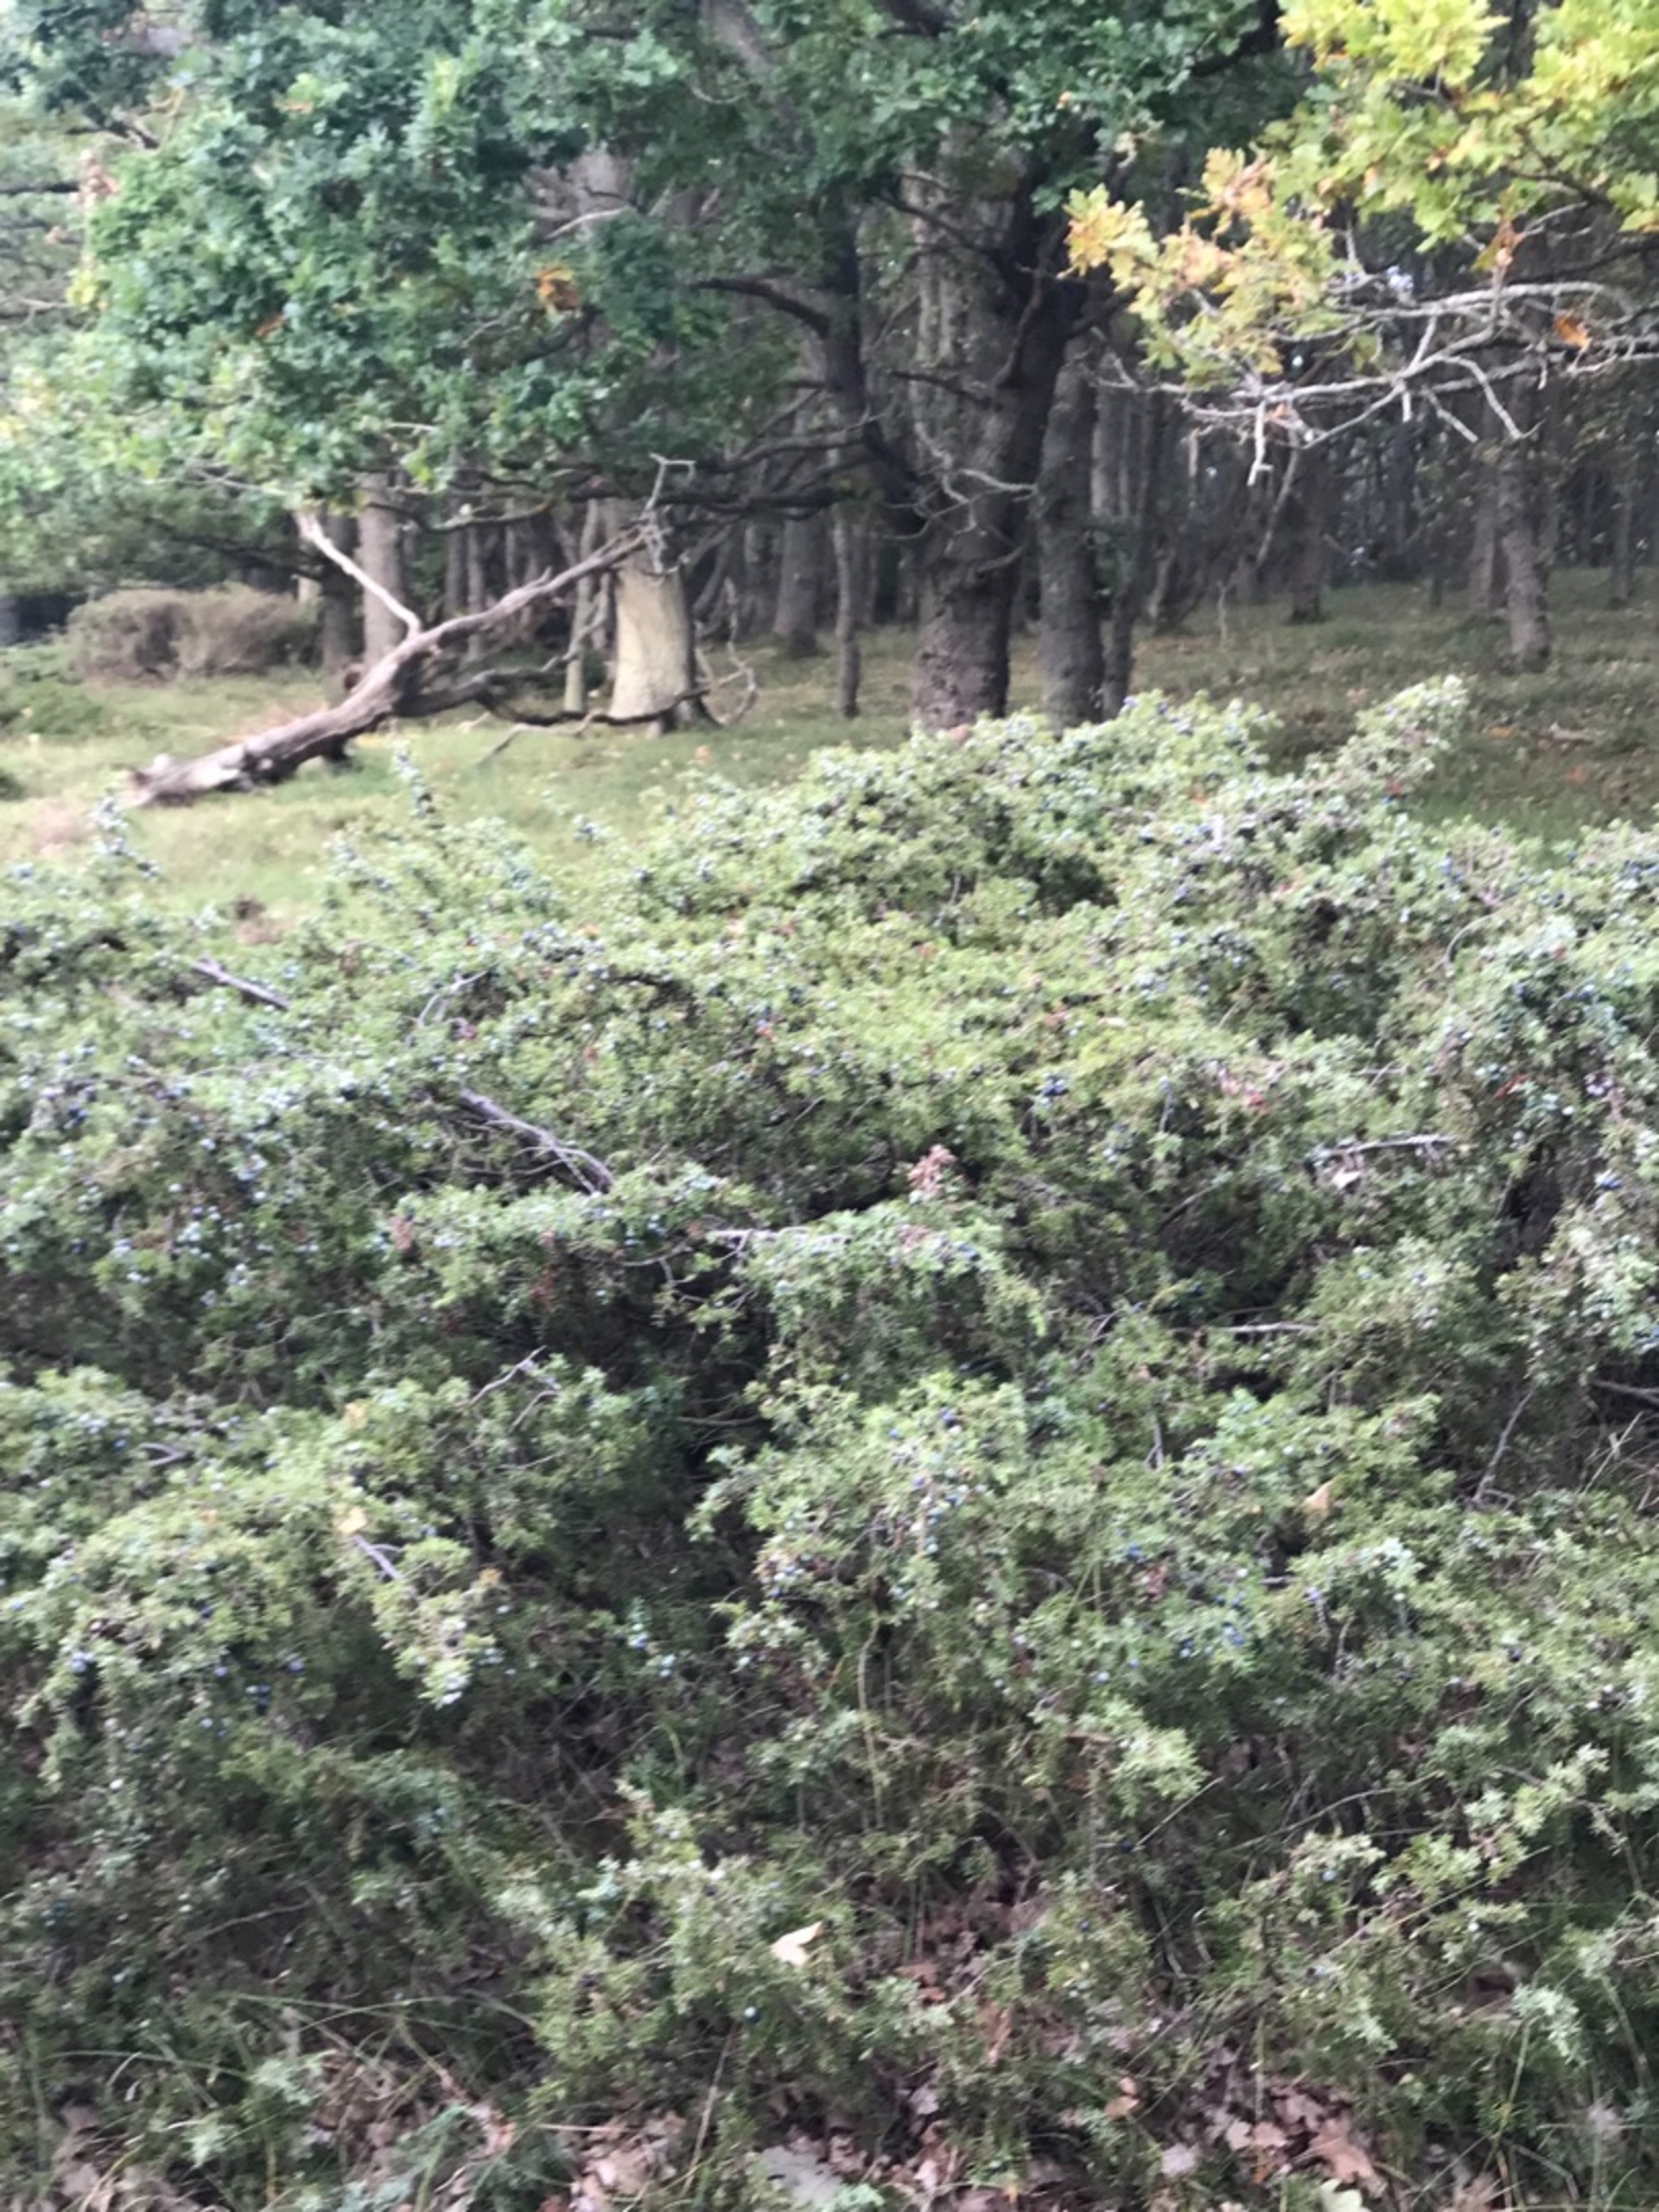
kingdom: Plantae
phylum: Tracheophyta
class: Pinopsida
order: Pinales
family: Cupressaceae
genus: Juniperus
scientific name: Juniperus communis
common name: Almindelig ene
